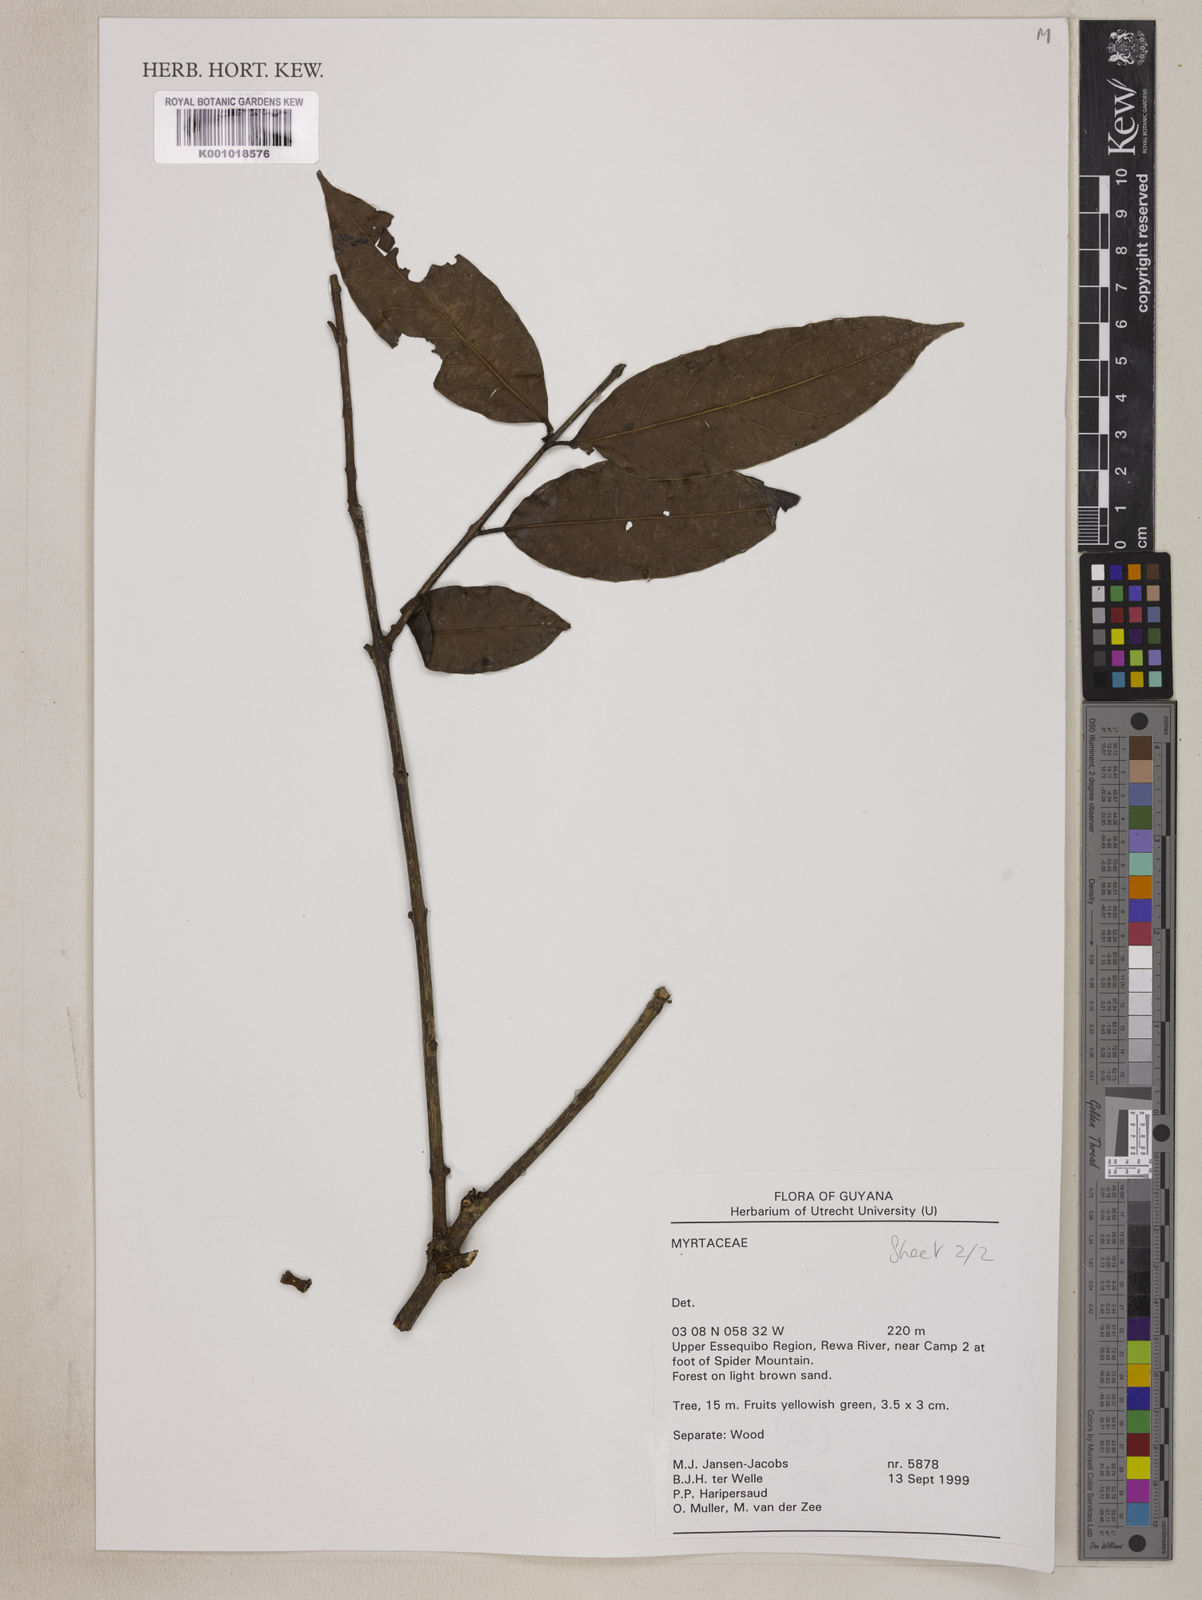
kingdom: Plantae
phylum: Tracheophyta
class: Magnoliopsida
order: Myrtales
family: Myrtaceae
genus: Eugenia
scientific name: Eugenia anastomosans
